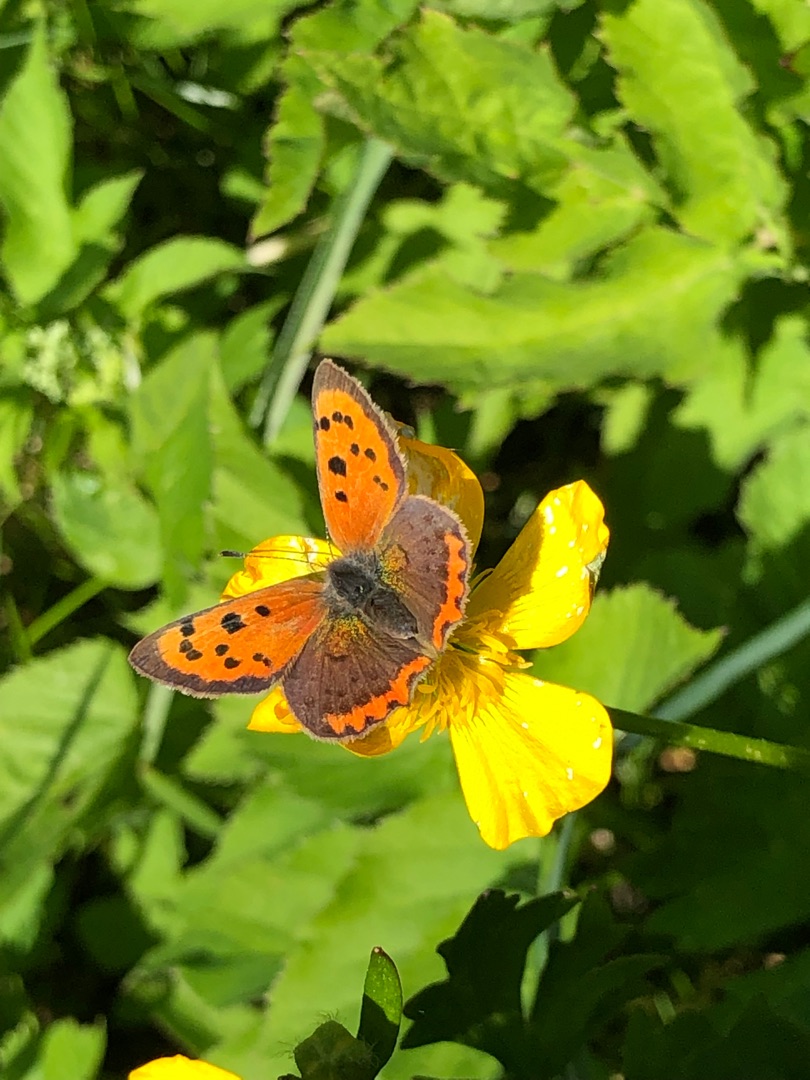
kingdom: Animalia
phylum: Arthropoda
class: Insecta
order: Lepidoptera
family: Lycaenidae
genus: Lycaena
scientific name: Lycaena phlaeas
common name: Lille ildfugl
